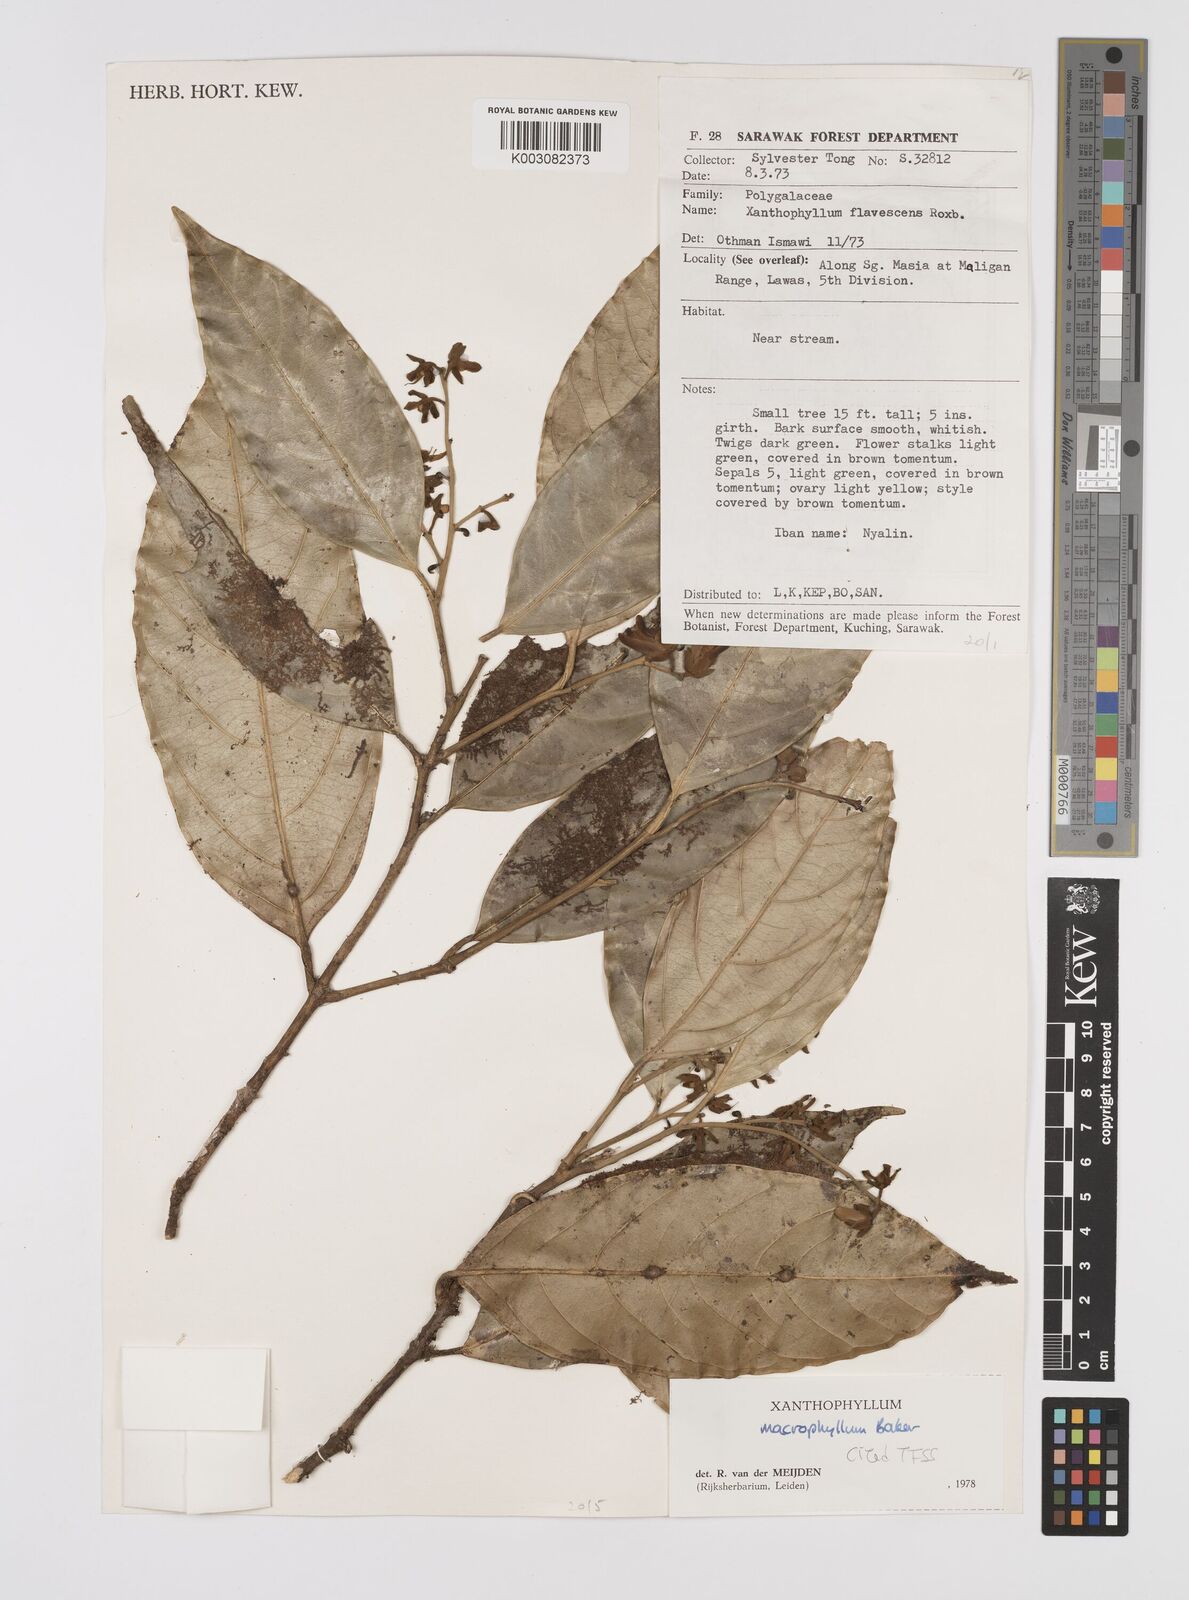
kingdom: Plantae
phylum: Tracheophyta
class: Magnoliopsida
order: Fabales
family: Polygalaceae
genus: Xanthophyllum
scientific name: Xanthophyllum macrophyllum
